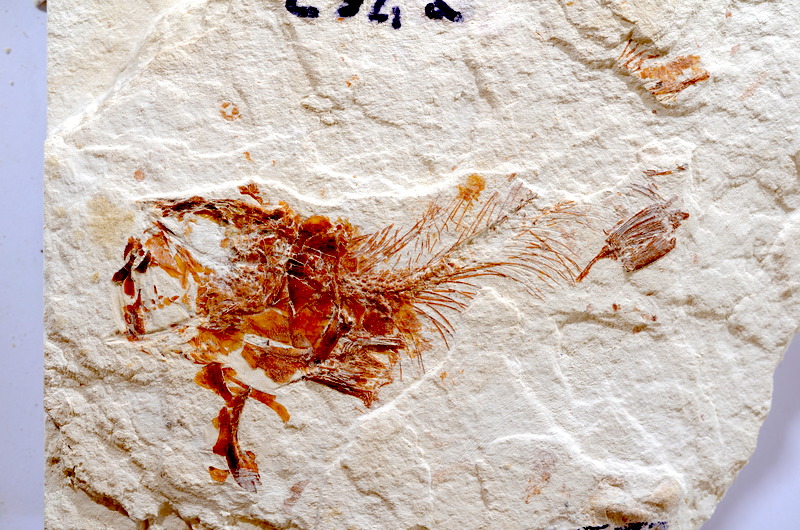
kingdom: Animalia
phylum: Chordata
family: Ascalaboidae
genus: Tharsis
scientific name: Tharsis dubius
